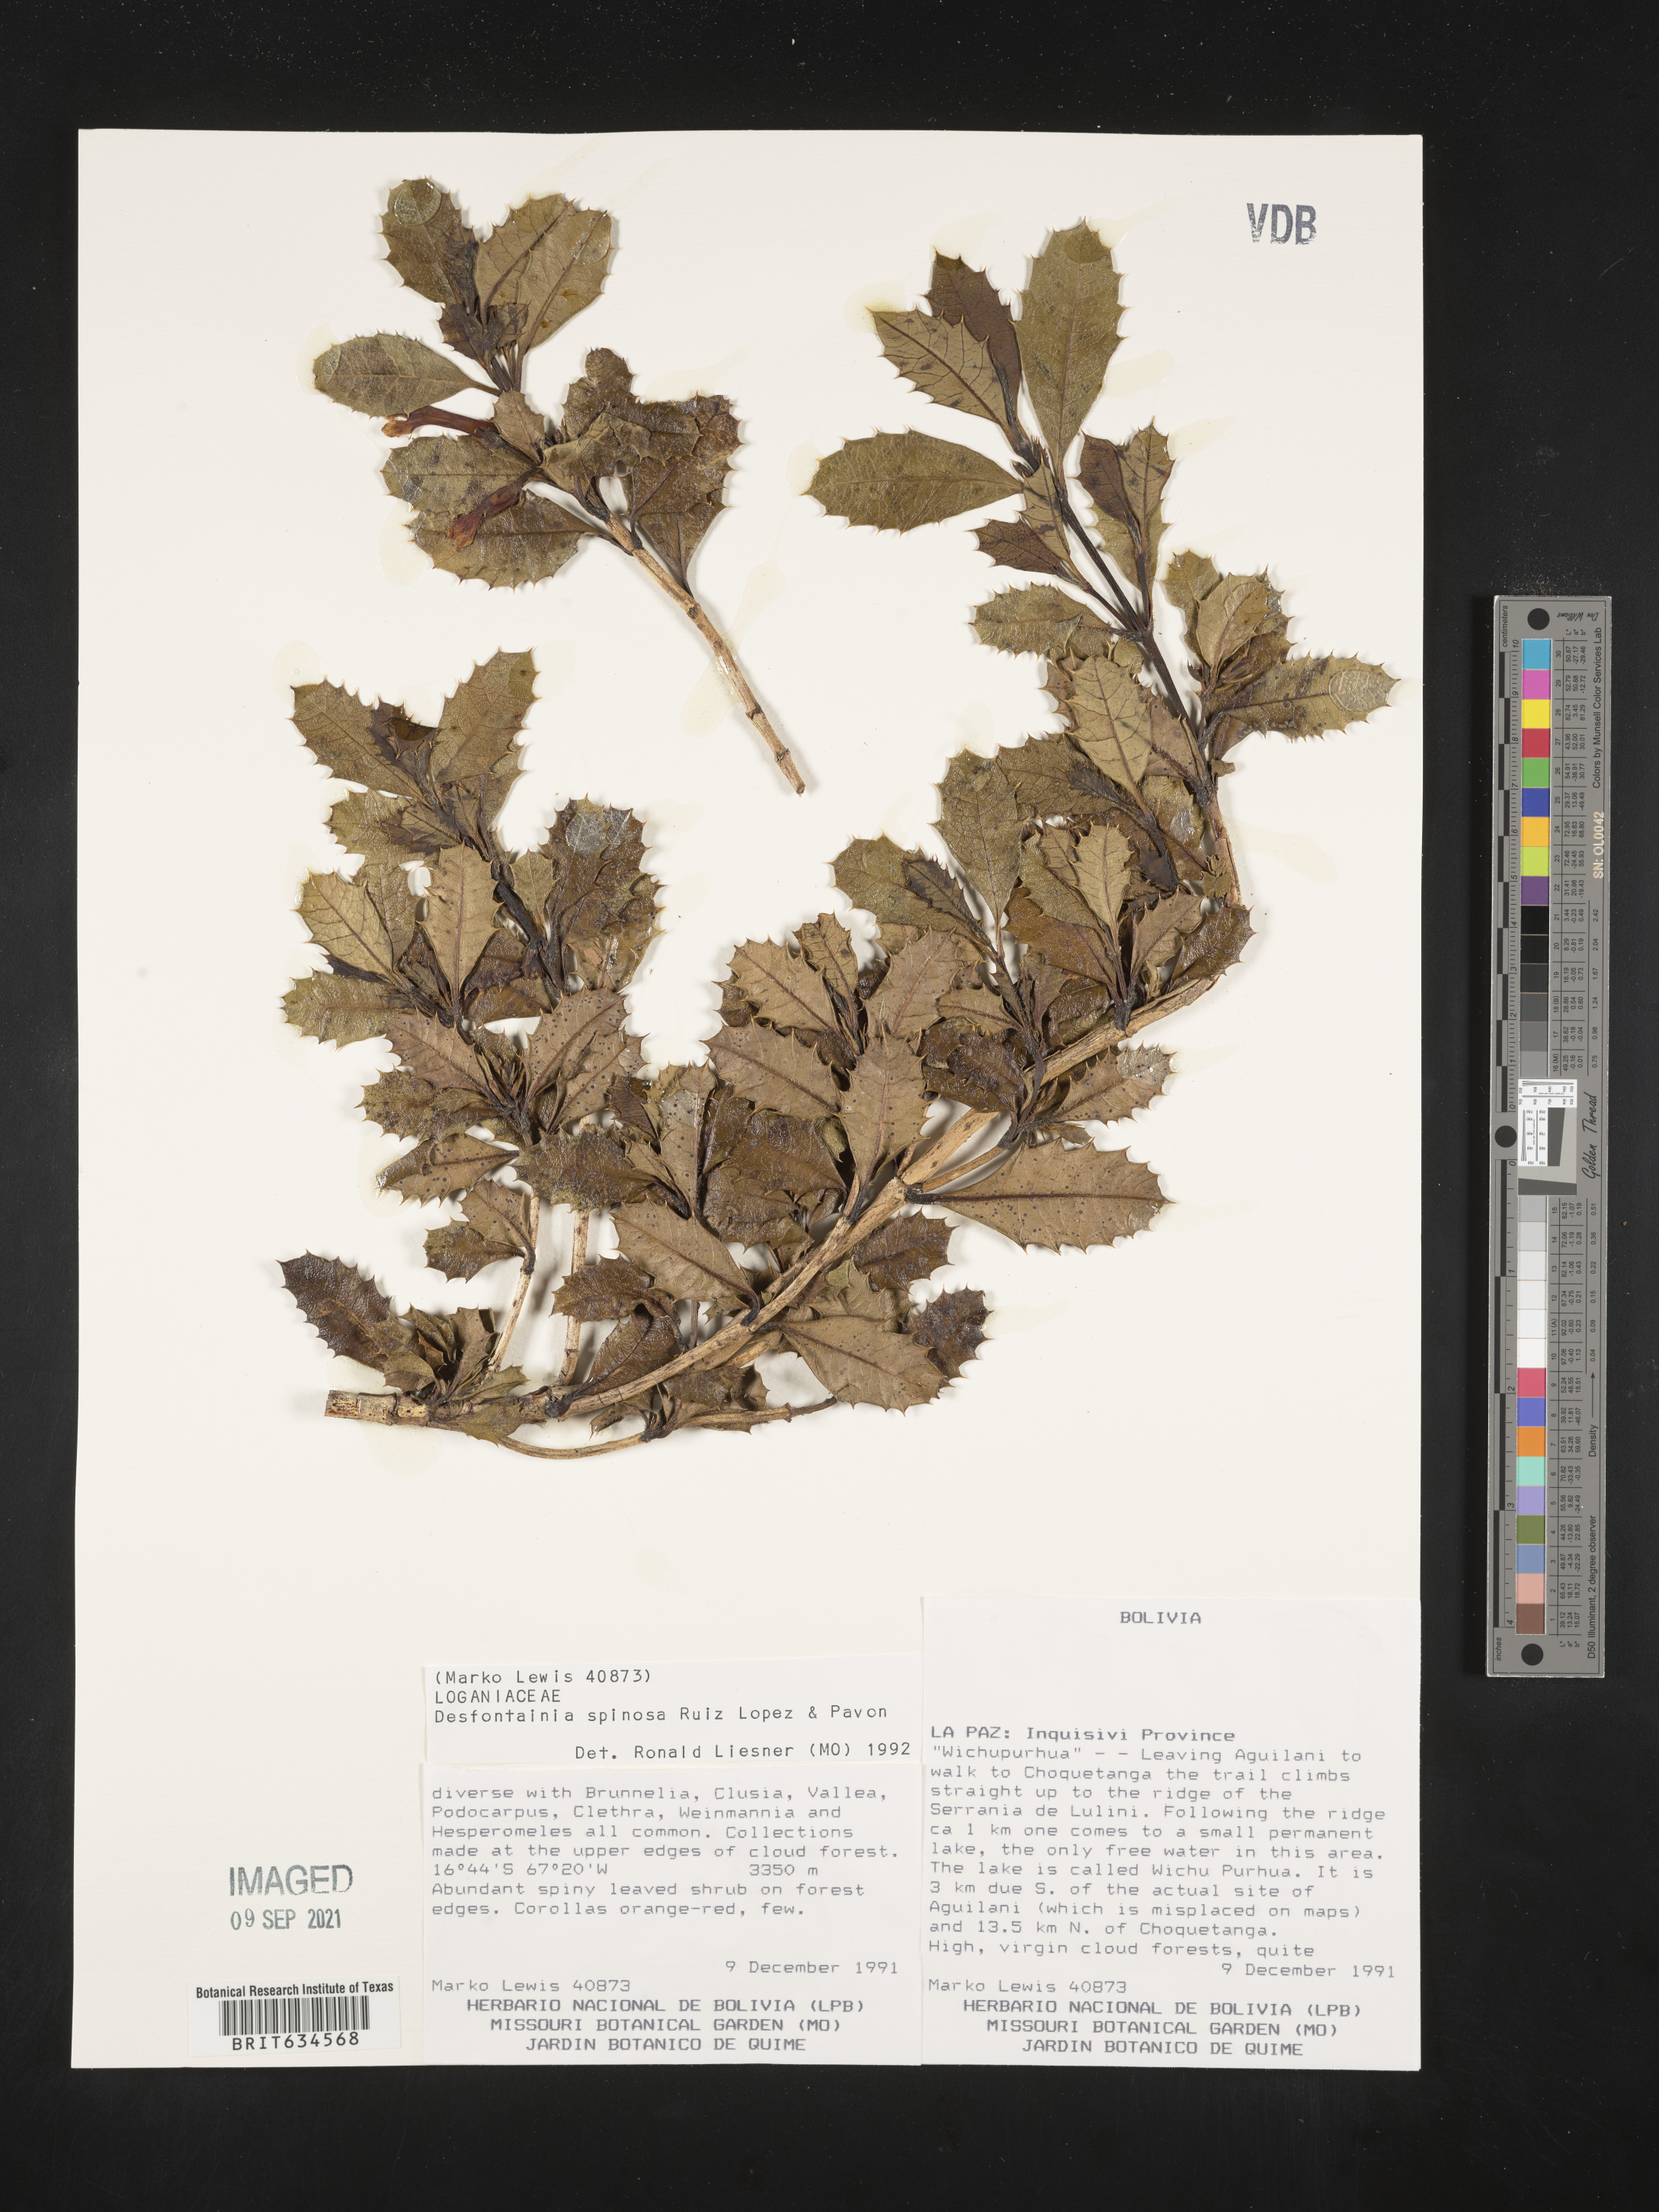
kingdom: Plantae
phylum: Tracheophyta
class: Magnoliopsida
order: Bruniales
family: Columelliaceae
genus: Desfontainia
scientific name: Desfontainia spinosa
